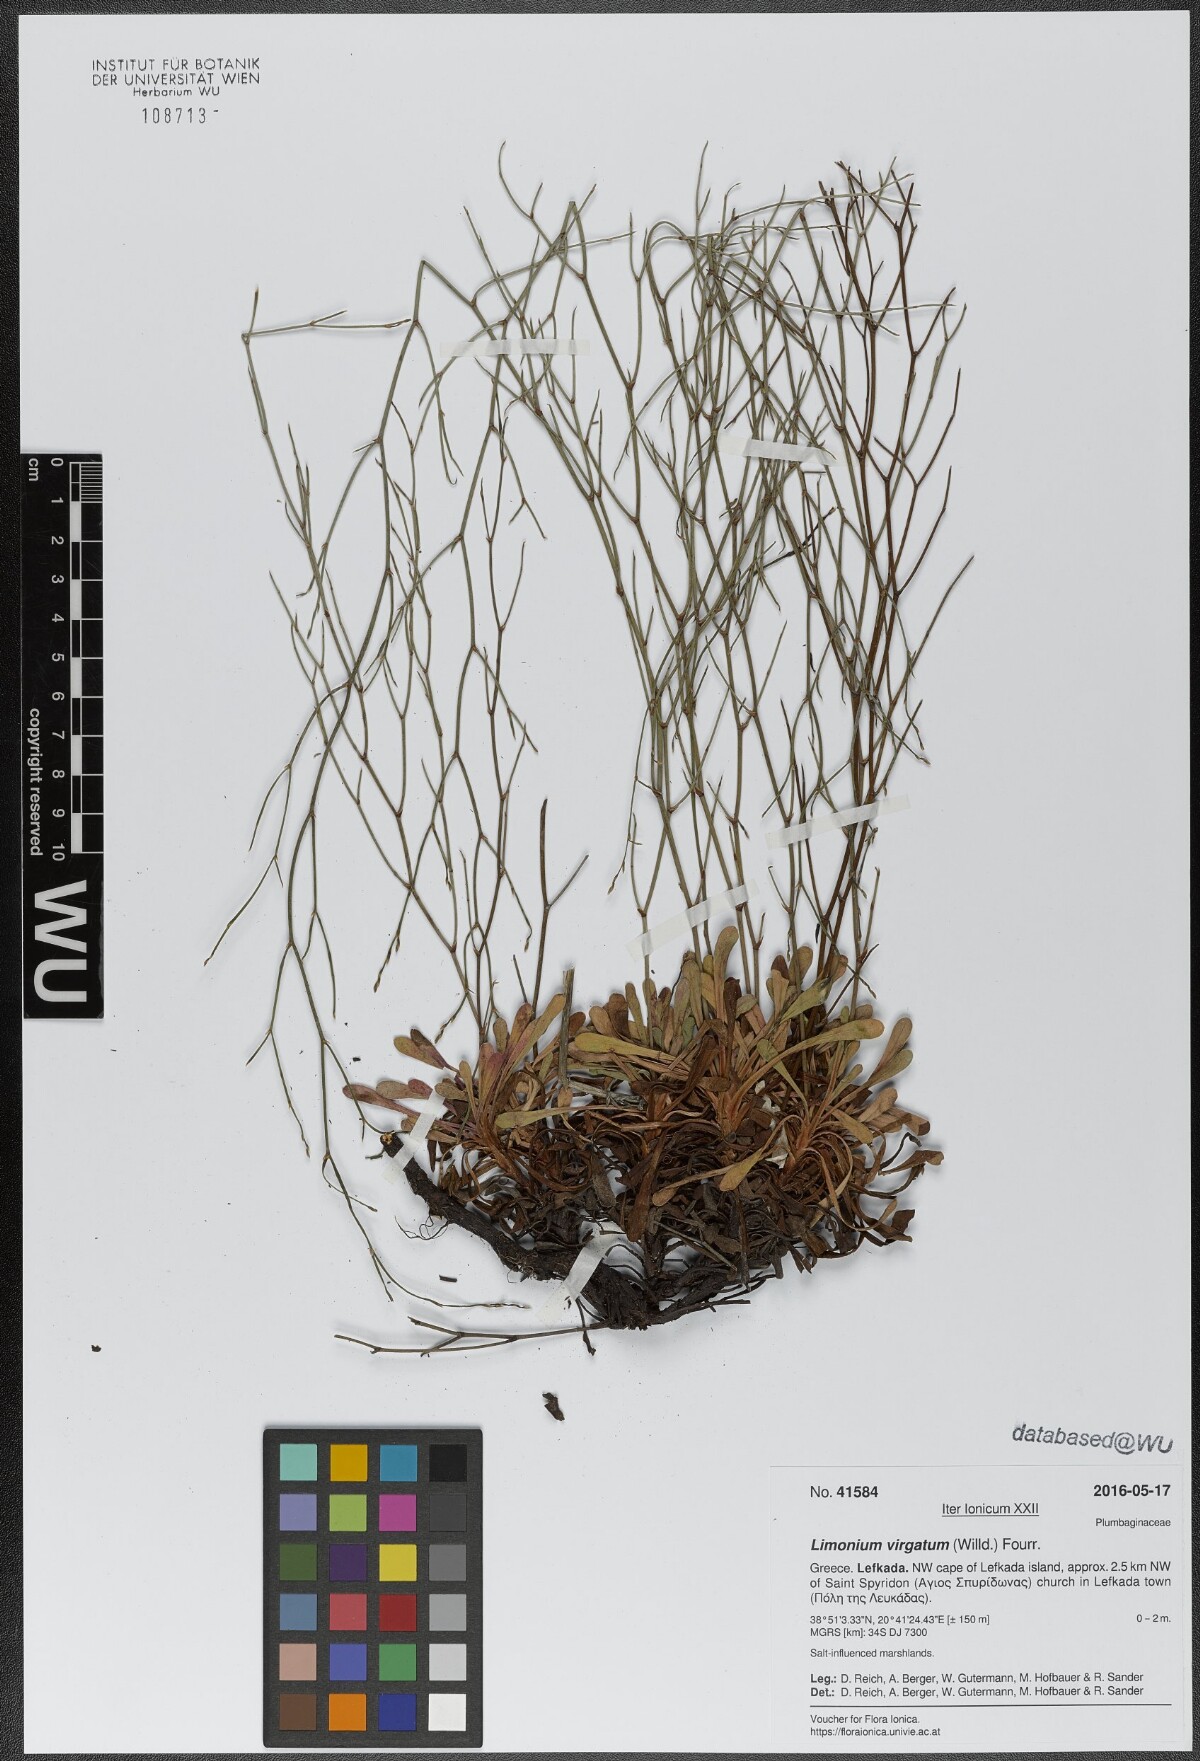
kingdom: Plantae
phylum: Tracheophyta
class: Magnoliopsida
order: Caryophyllales
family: Plumbaginaceae
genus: Limonium
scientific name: Limonium virgatum
